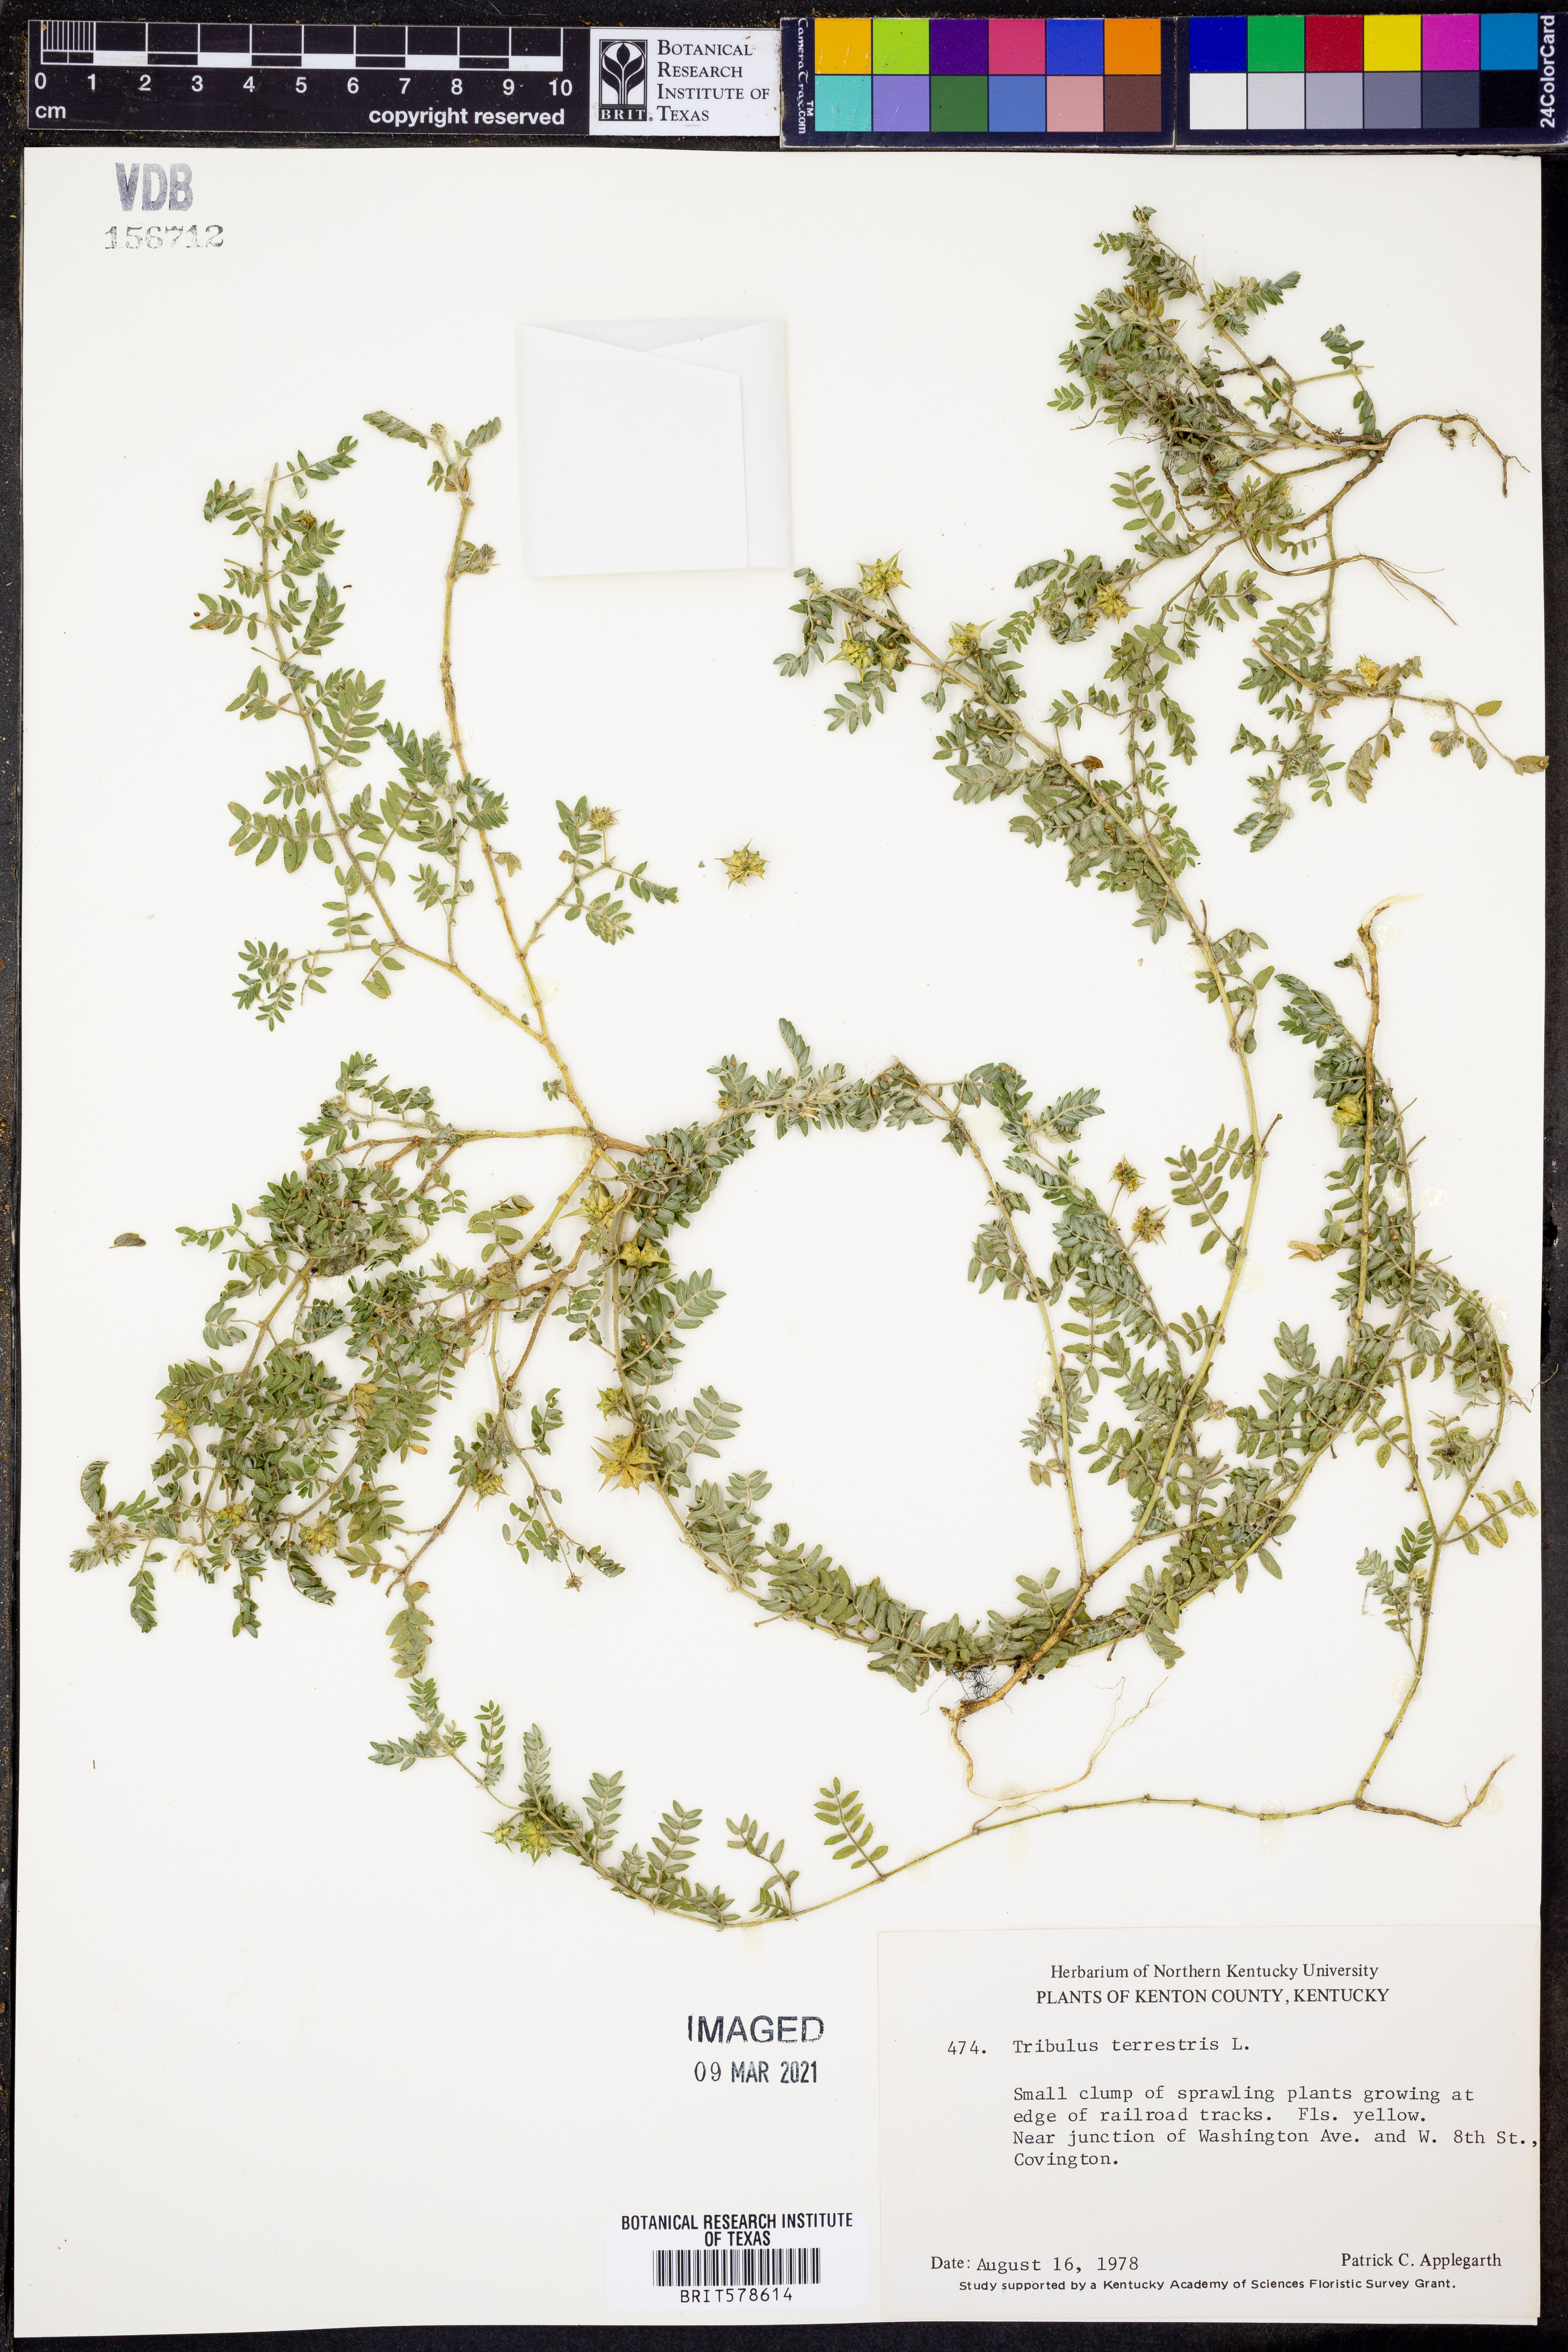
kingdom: Plantae
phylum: Tracheophyta
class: Magnoliopsida
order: Zygophyllales
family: Zygophyllaceae
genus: Tribulus
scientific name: Tribulus terrestris
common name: Puncturevine
